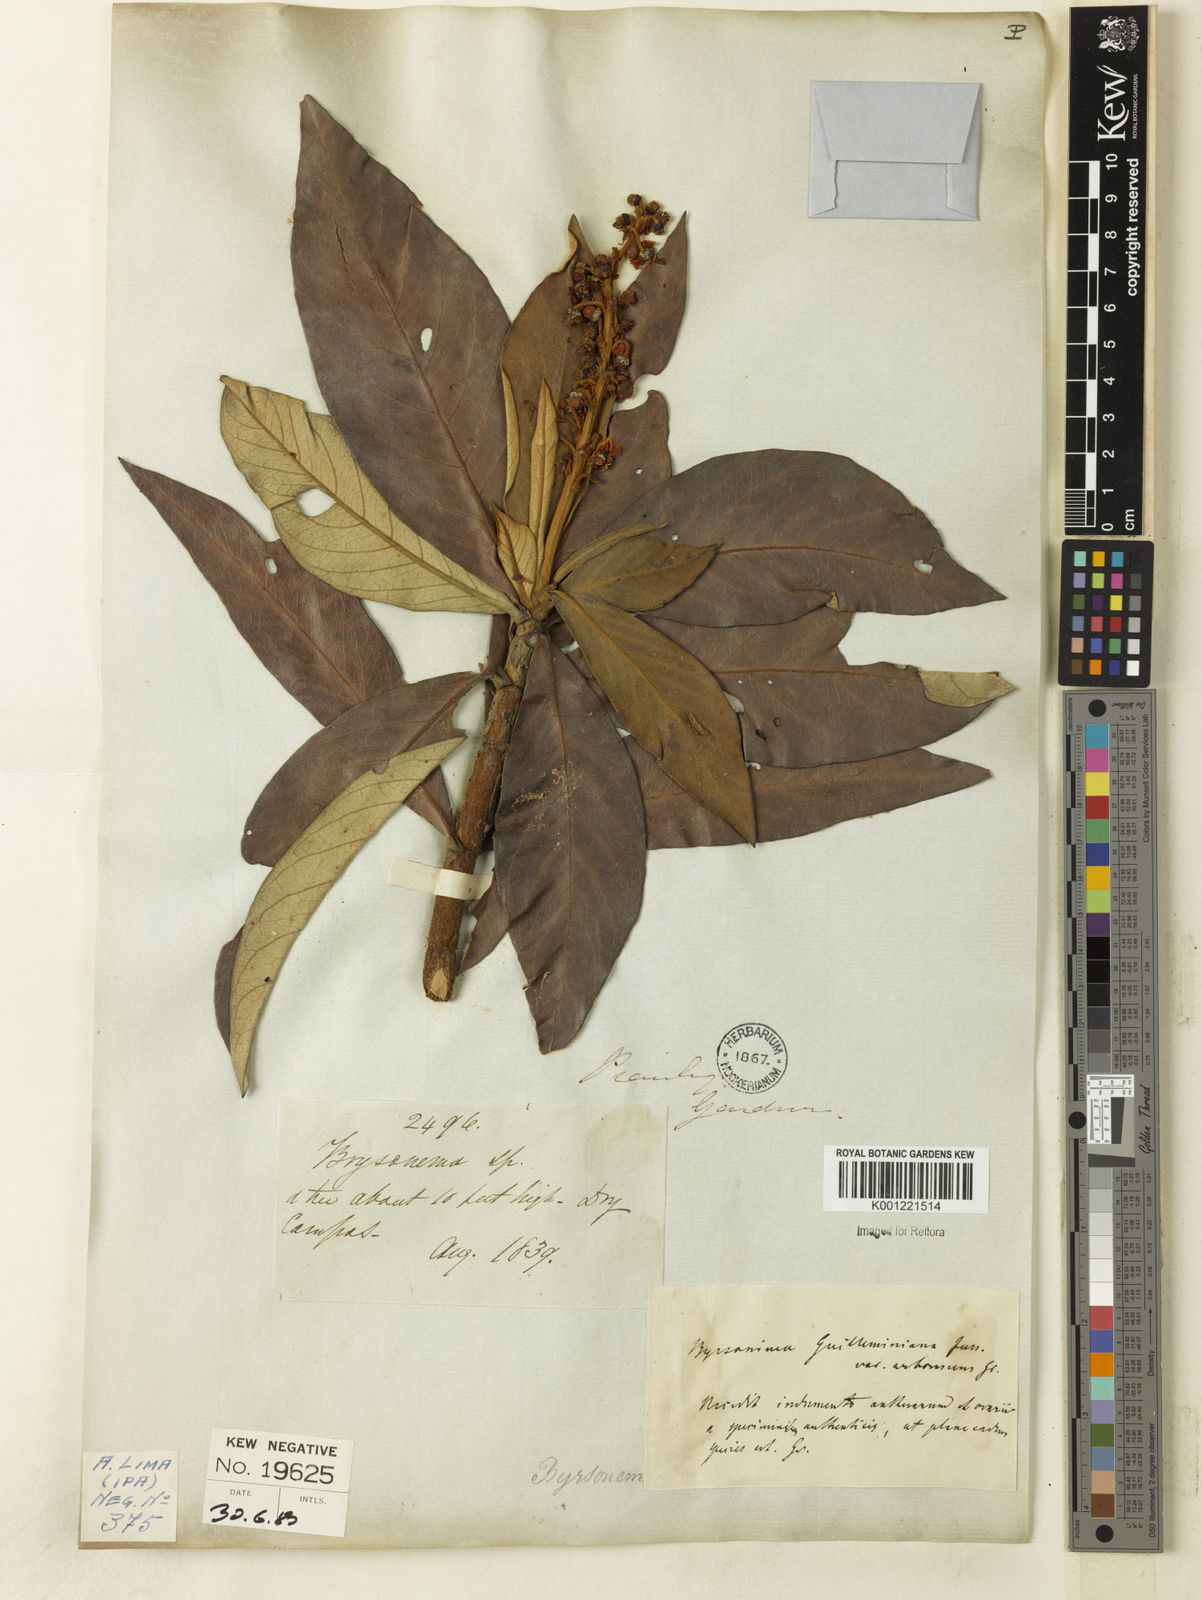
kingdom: Plantae
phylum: Tracheophyta
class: Magnoliopsida
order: Malpighiales
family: Malpighiaceae
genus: Byrsonima
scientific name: Byrsonima guilleminiana
